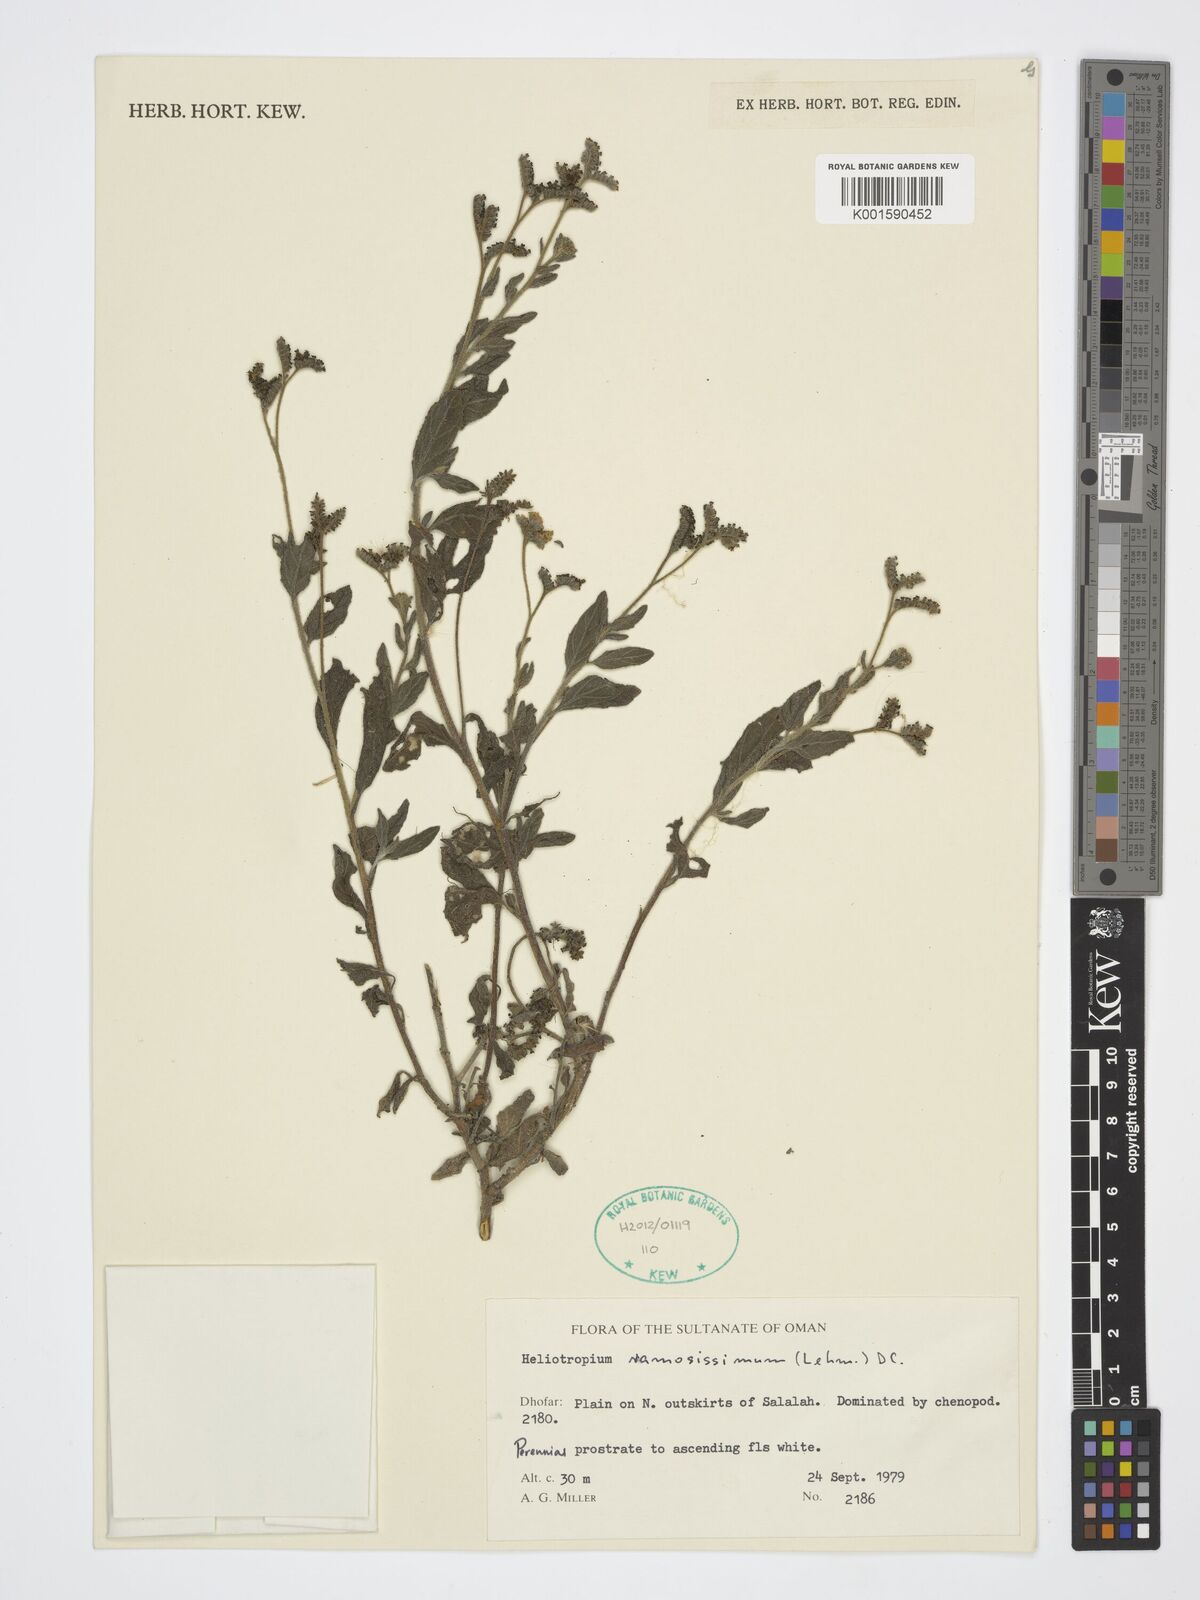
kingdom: Plantae
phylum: Tracheophyta
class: Magnoliopsida
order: Boraginales
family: Heliotropiaceae
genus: Heliotropium
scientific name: Heliotropium ramosissimum
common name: Wavy heliotrope
